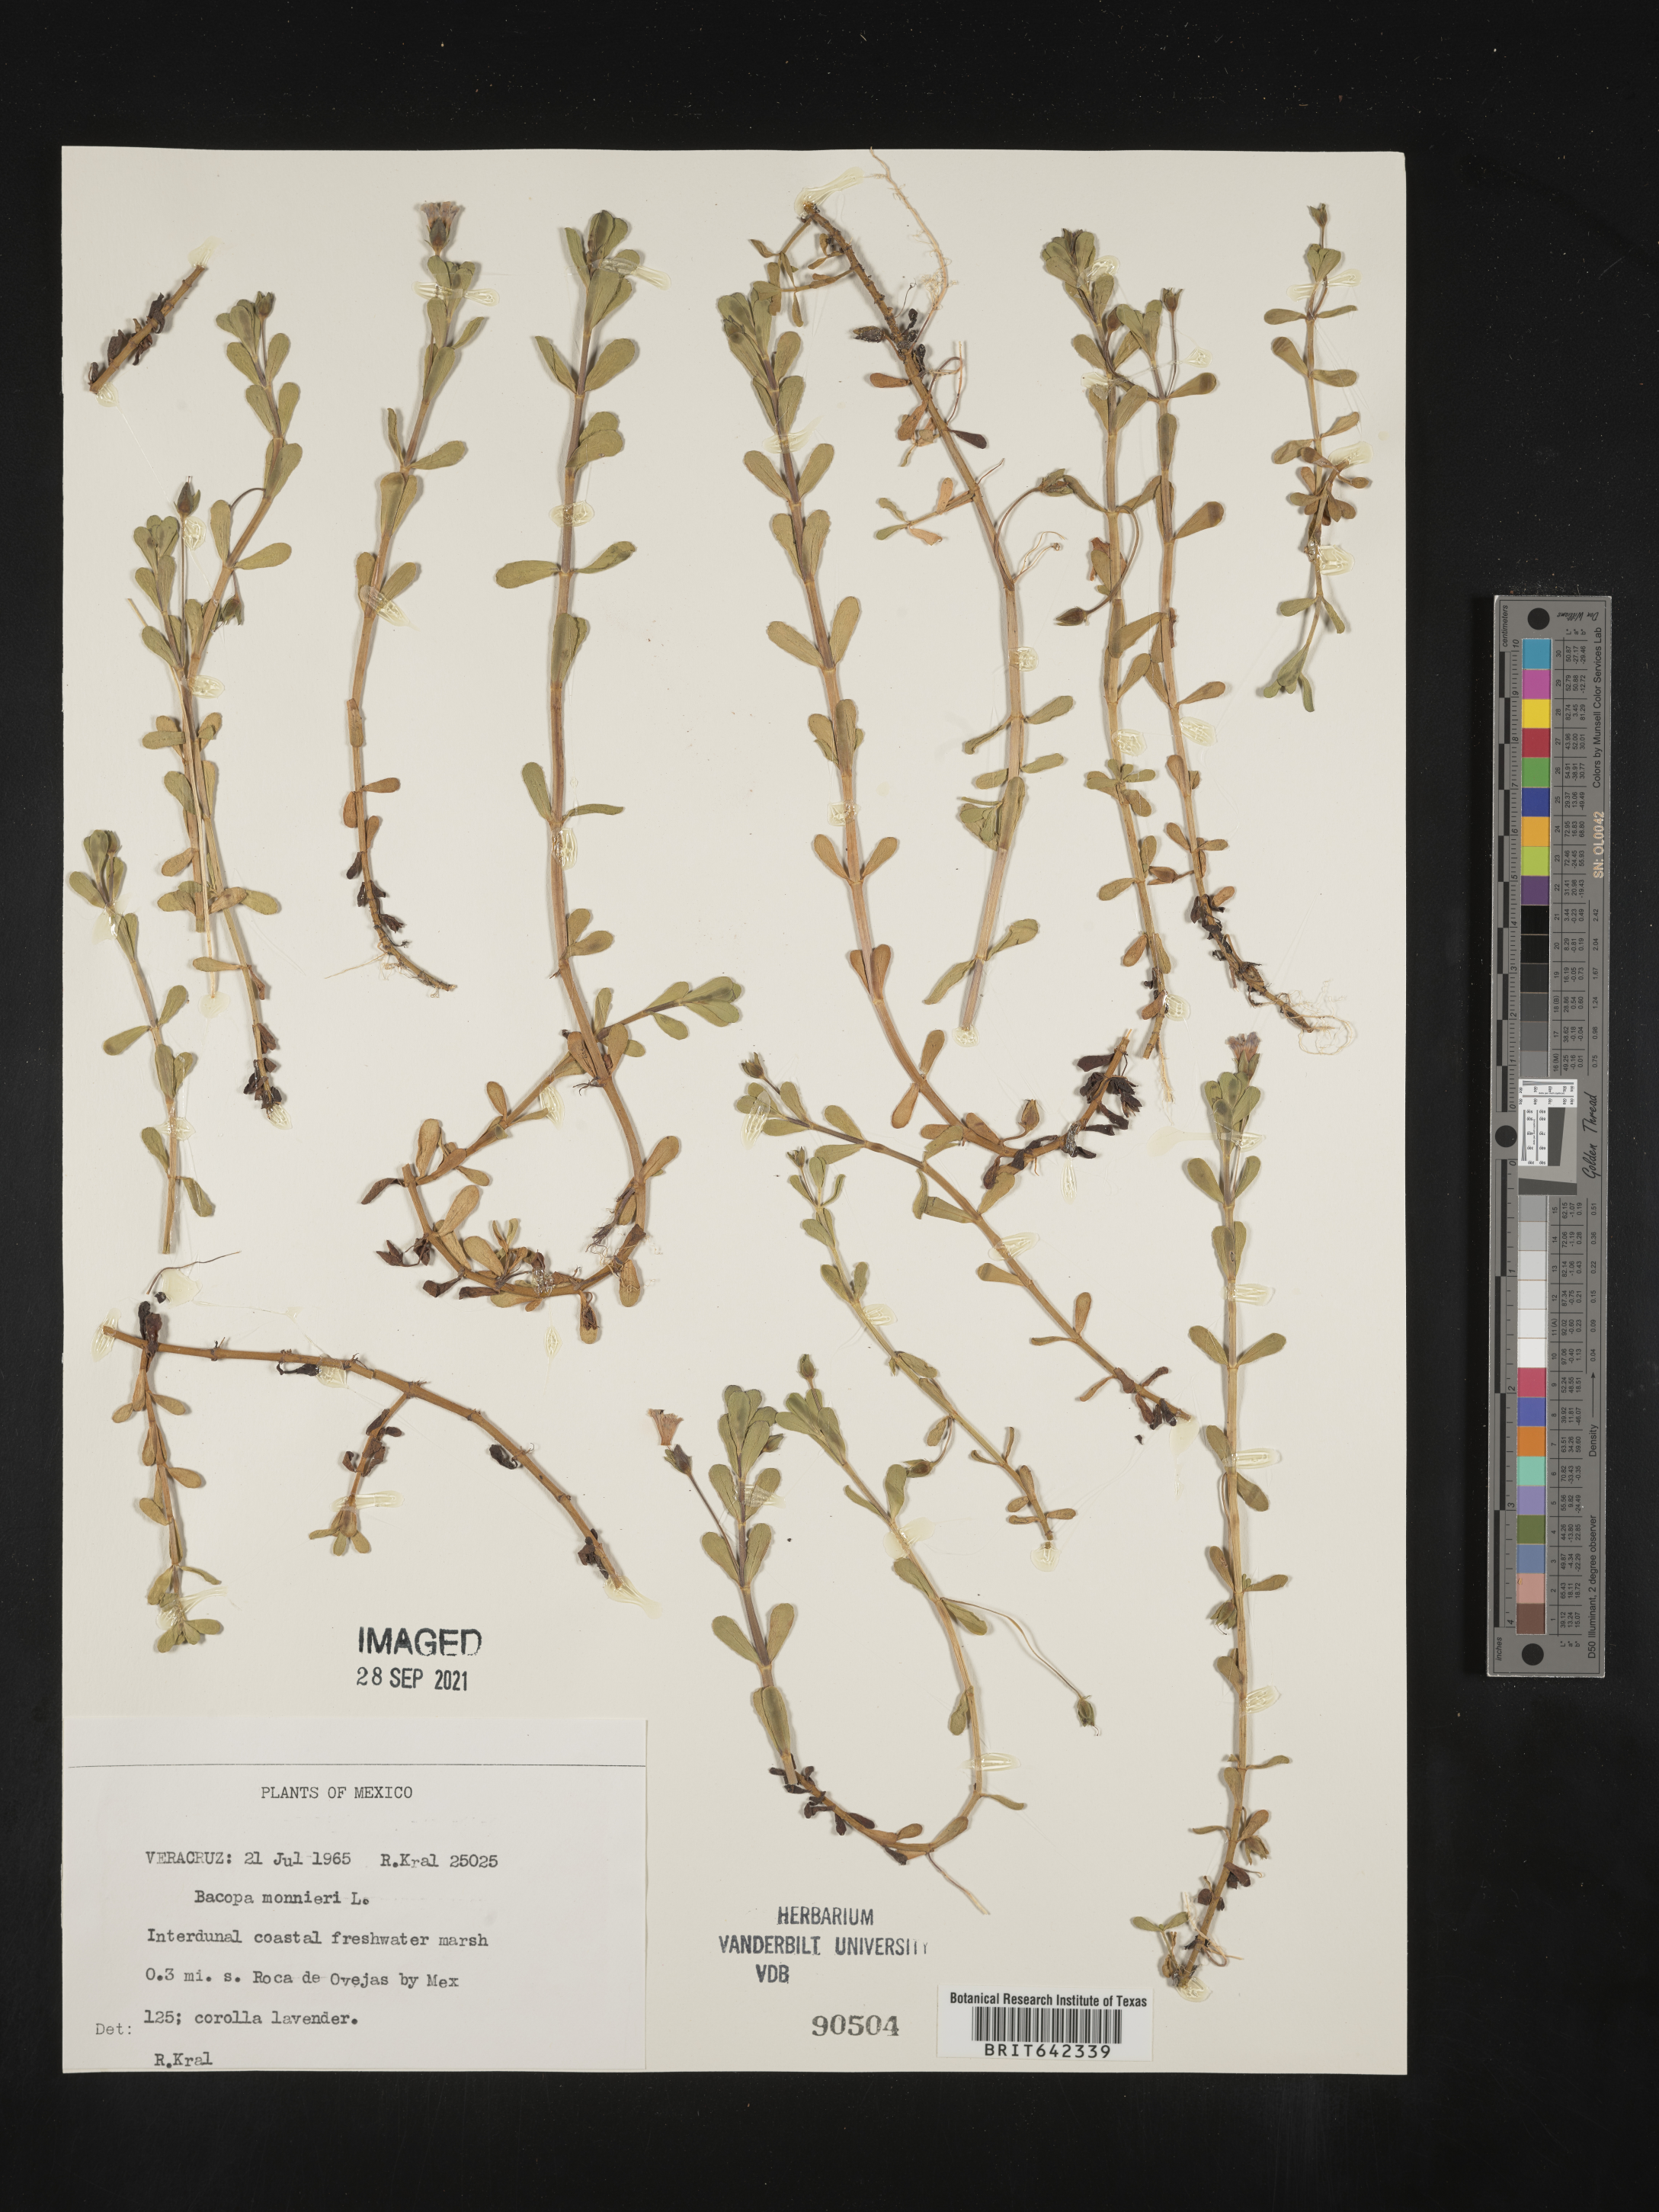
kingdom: Plantae
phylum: Tracheophyta
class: Magnoliopsida
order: Lamiales
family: Plantaginaceae
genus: Bacopa
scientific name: Bacopa
